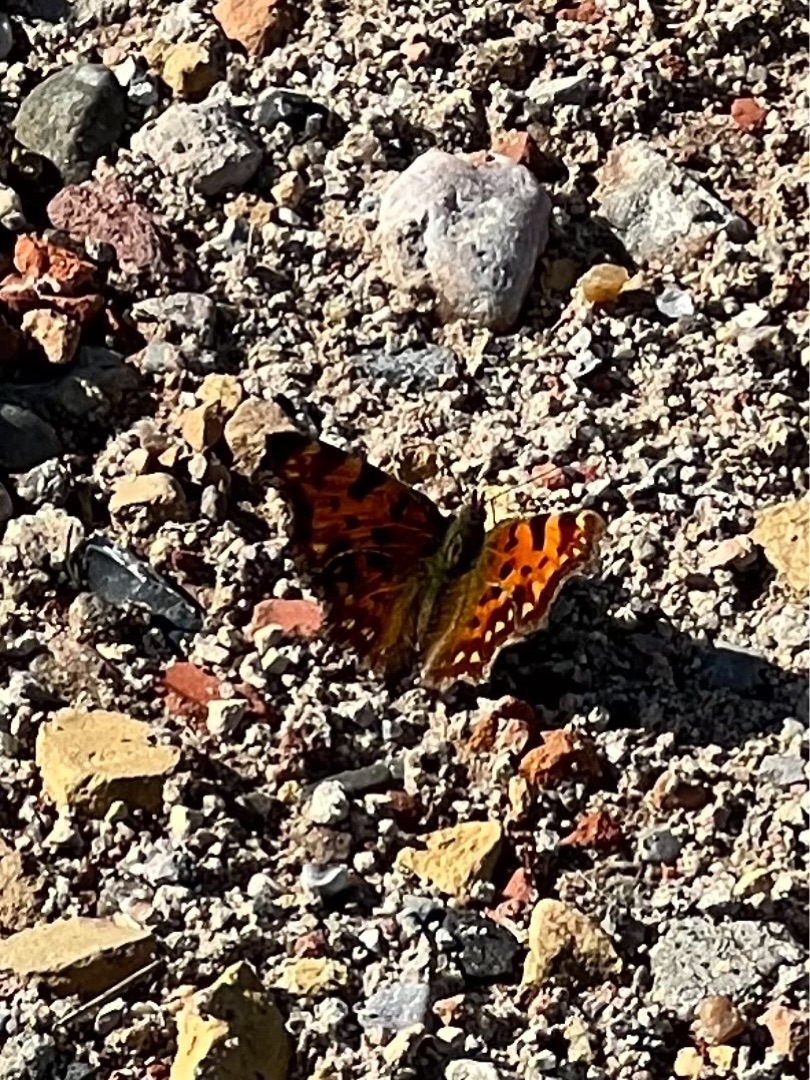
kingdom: Animalia
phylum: Arthropoda
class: Insecta
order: Lepidoptera
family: Nymphalidae
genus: Polygonia
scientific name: Polygonia c-album
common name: Det hvide C
